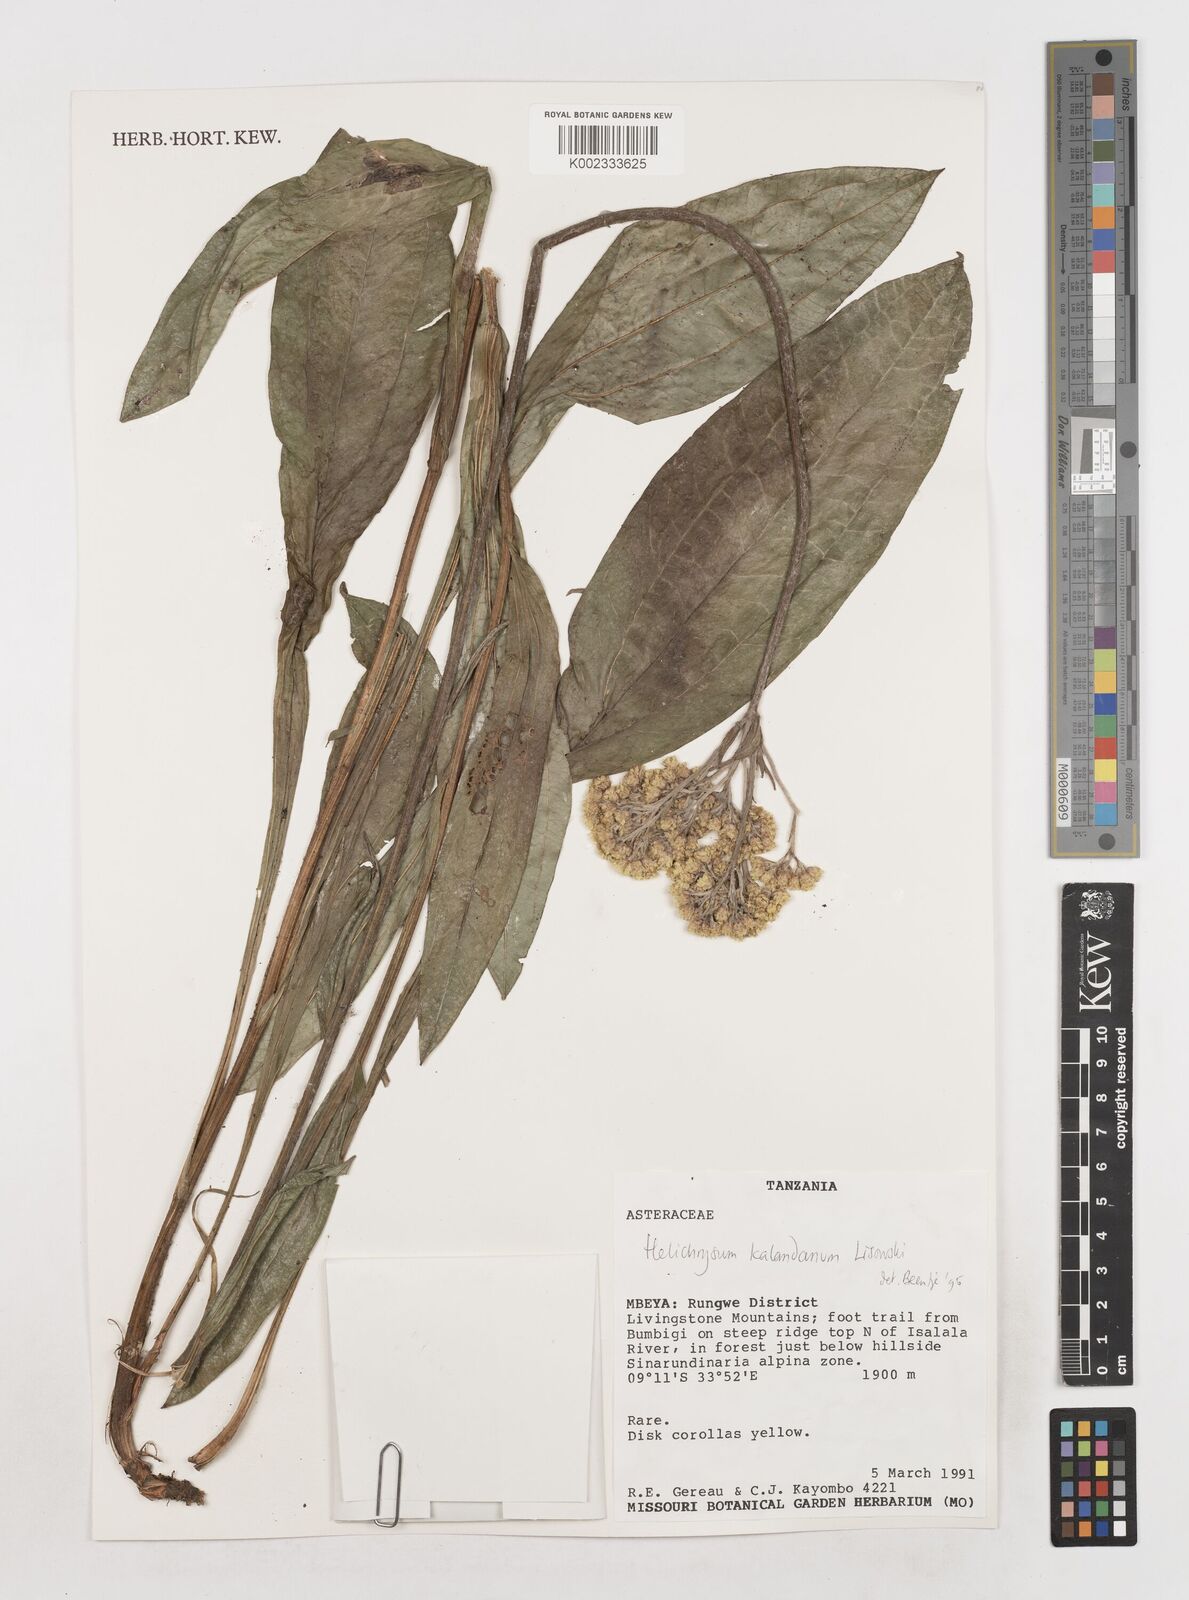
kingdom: Plantae
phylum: Tracheophyta
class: Magnoliopsida
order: Asterales
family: Asteraceae
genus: Helichrysum
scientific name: Helichrysum kalandanum
